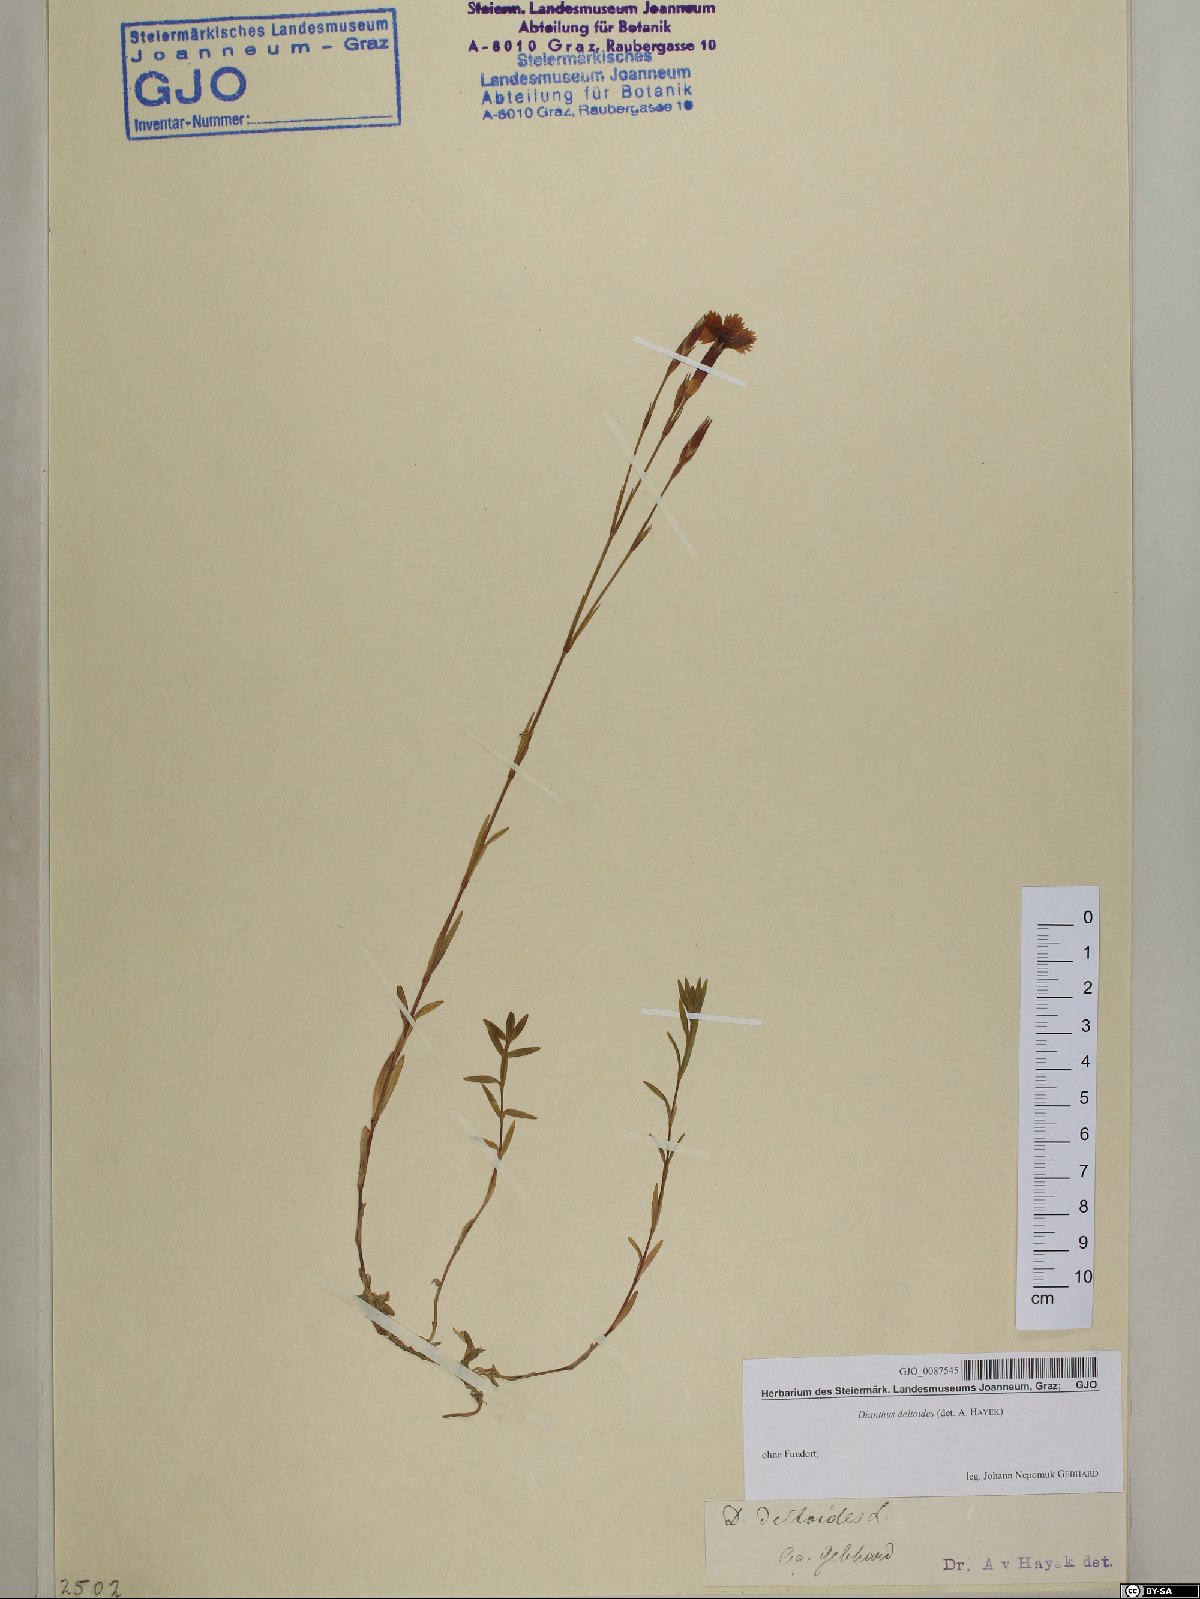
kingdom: Plantae
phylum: Tracheophyta
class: Magnoliopsida
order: Caryophyllales
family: Caryophyllaceae
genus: Dianthus
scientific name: Dianthus deltoides
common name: Maiden pink
